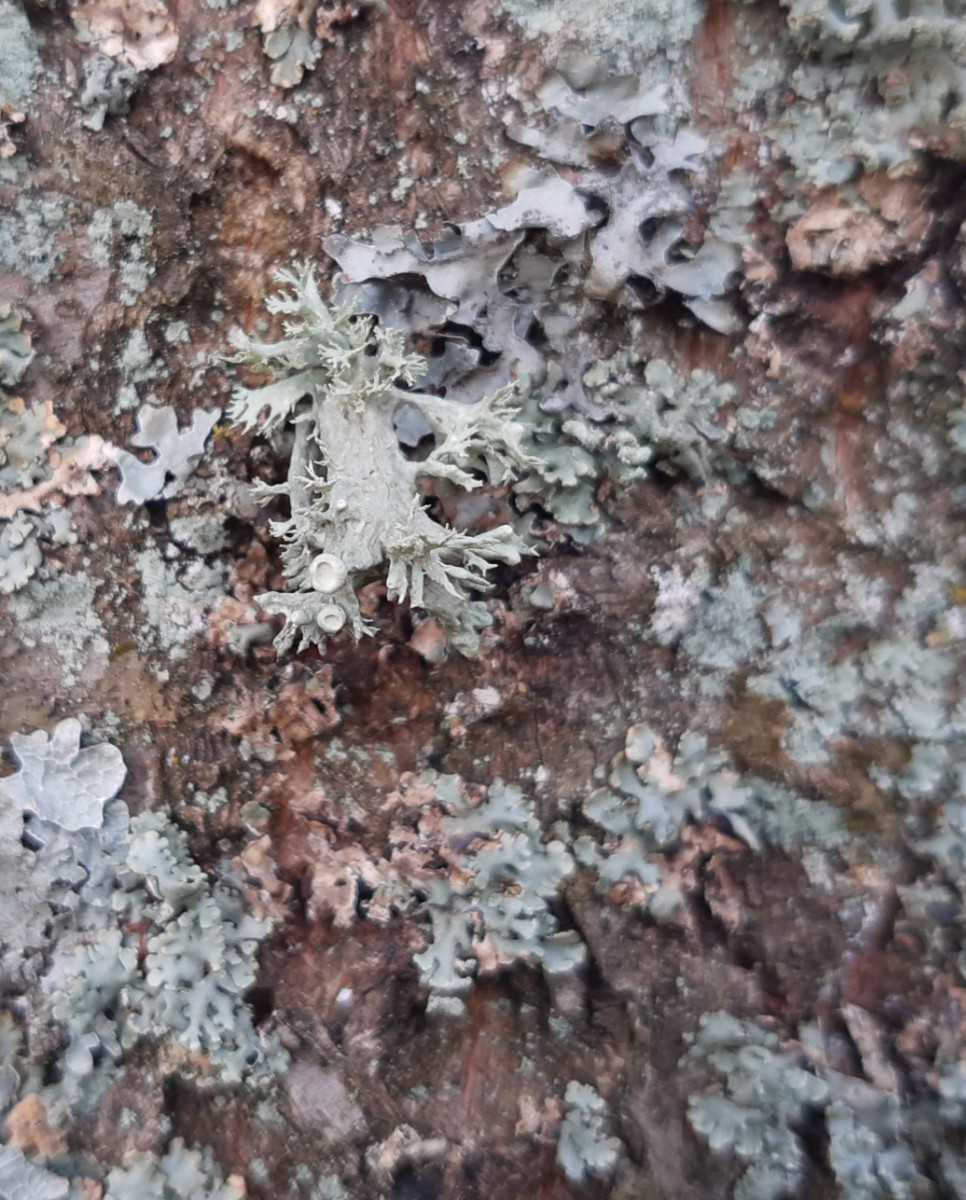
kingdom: Fungi
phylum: Ascomycota
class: Lecanoromycetes
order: Lecanorales
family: Ramalinaceae
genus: Ramalina
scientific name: Ramalina fastigiata
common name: tue-grenlav
